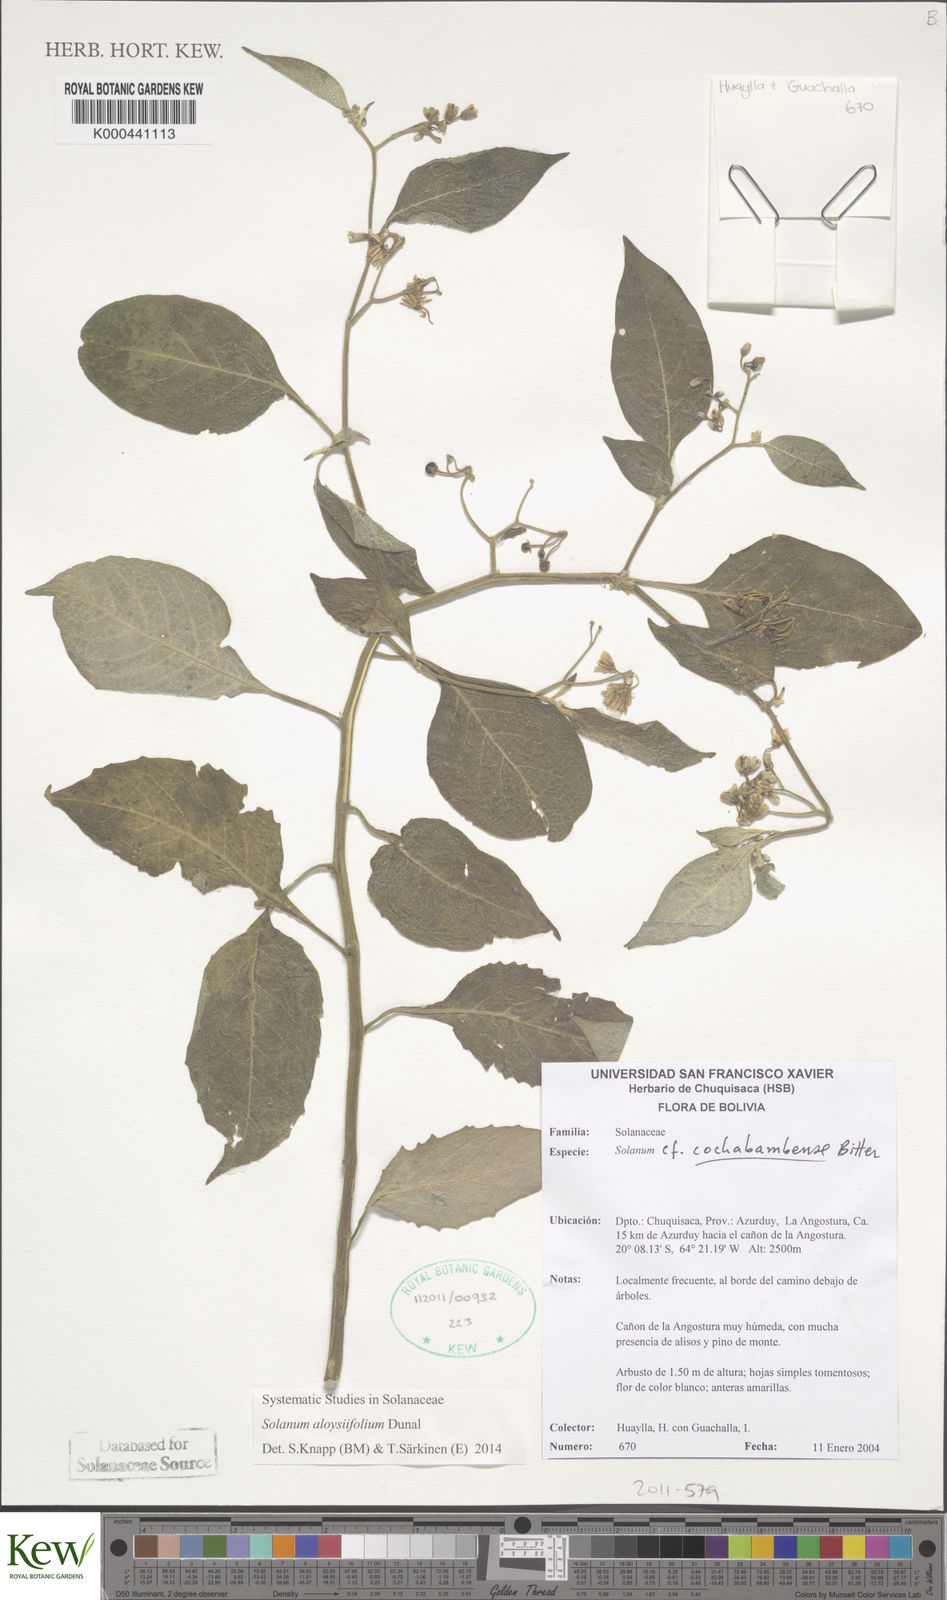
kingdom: Plantae
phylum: Tracheophyta
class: Magnoliopsida
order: Solanales
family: Solanaceae
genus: Solanum
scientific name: Solanum aloysiifolium
